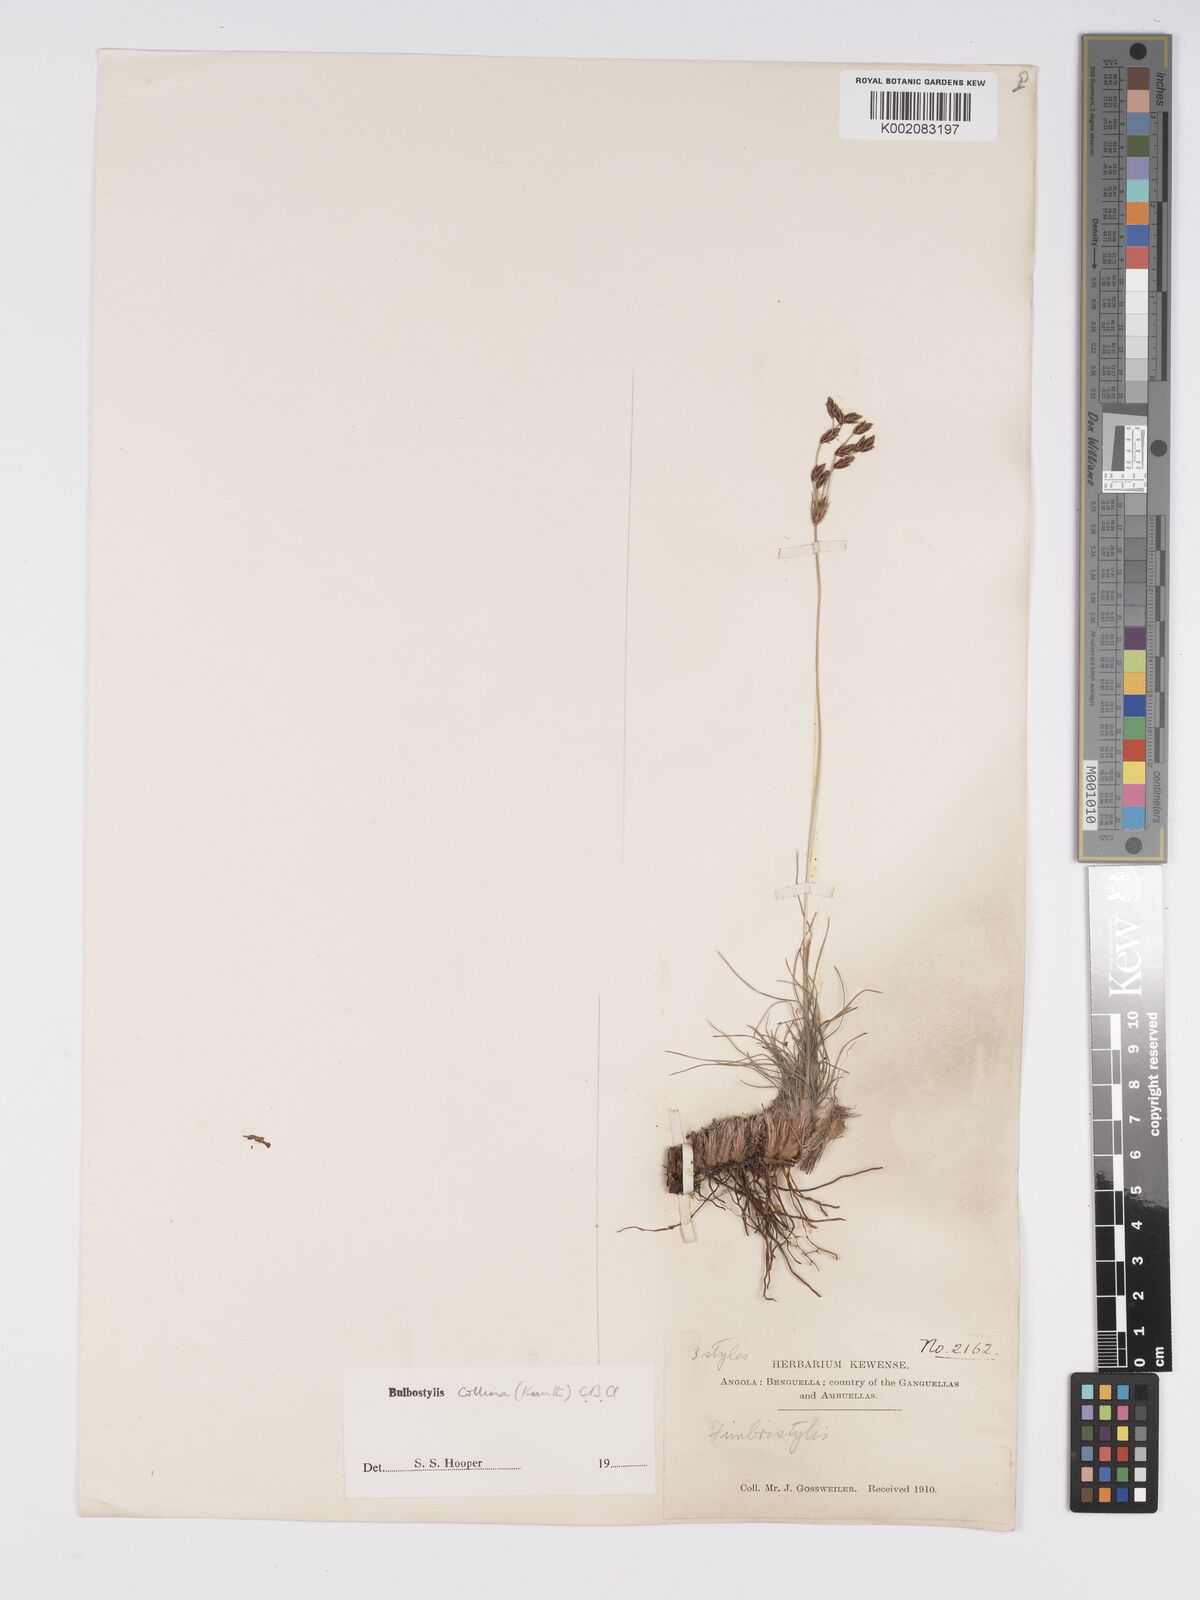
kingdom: Plantae
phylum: Tracheophyta
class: Liliopsida
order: Poales
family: Cyperaceae
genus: Bulbostylis
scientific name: Bulbostylis contexta
